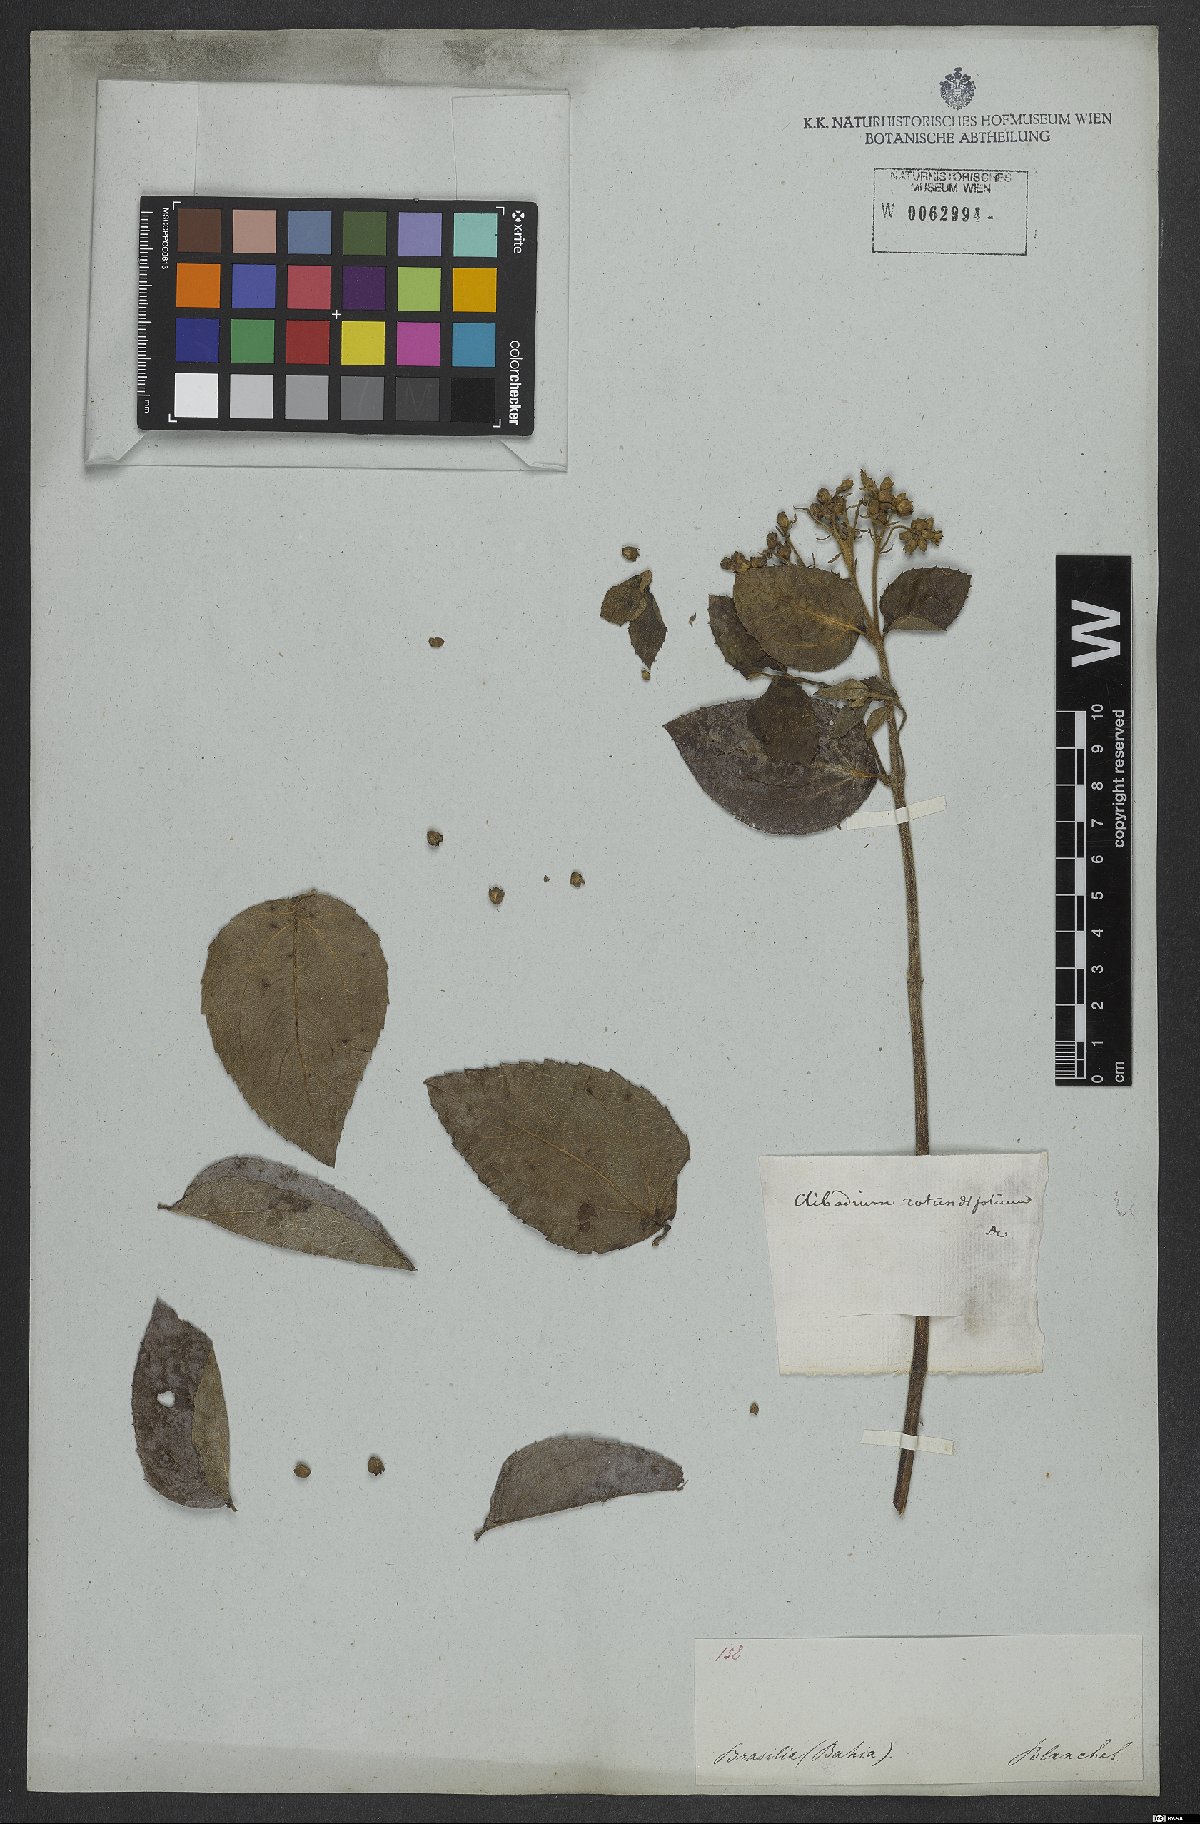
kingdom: Plantae
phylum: Tracheophyta
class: Magnoliopsida
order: Asterales
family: Asteraceae
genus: Clibadium
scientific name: Clibadium armanii
